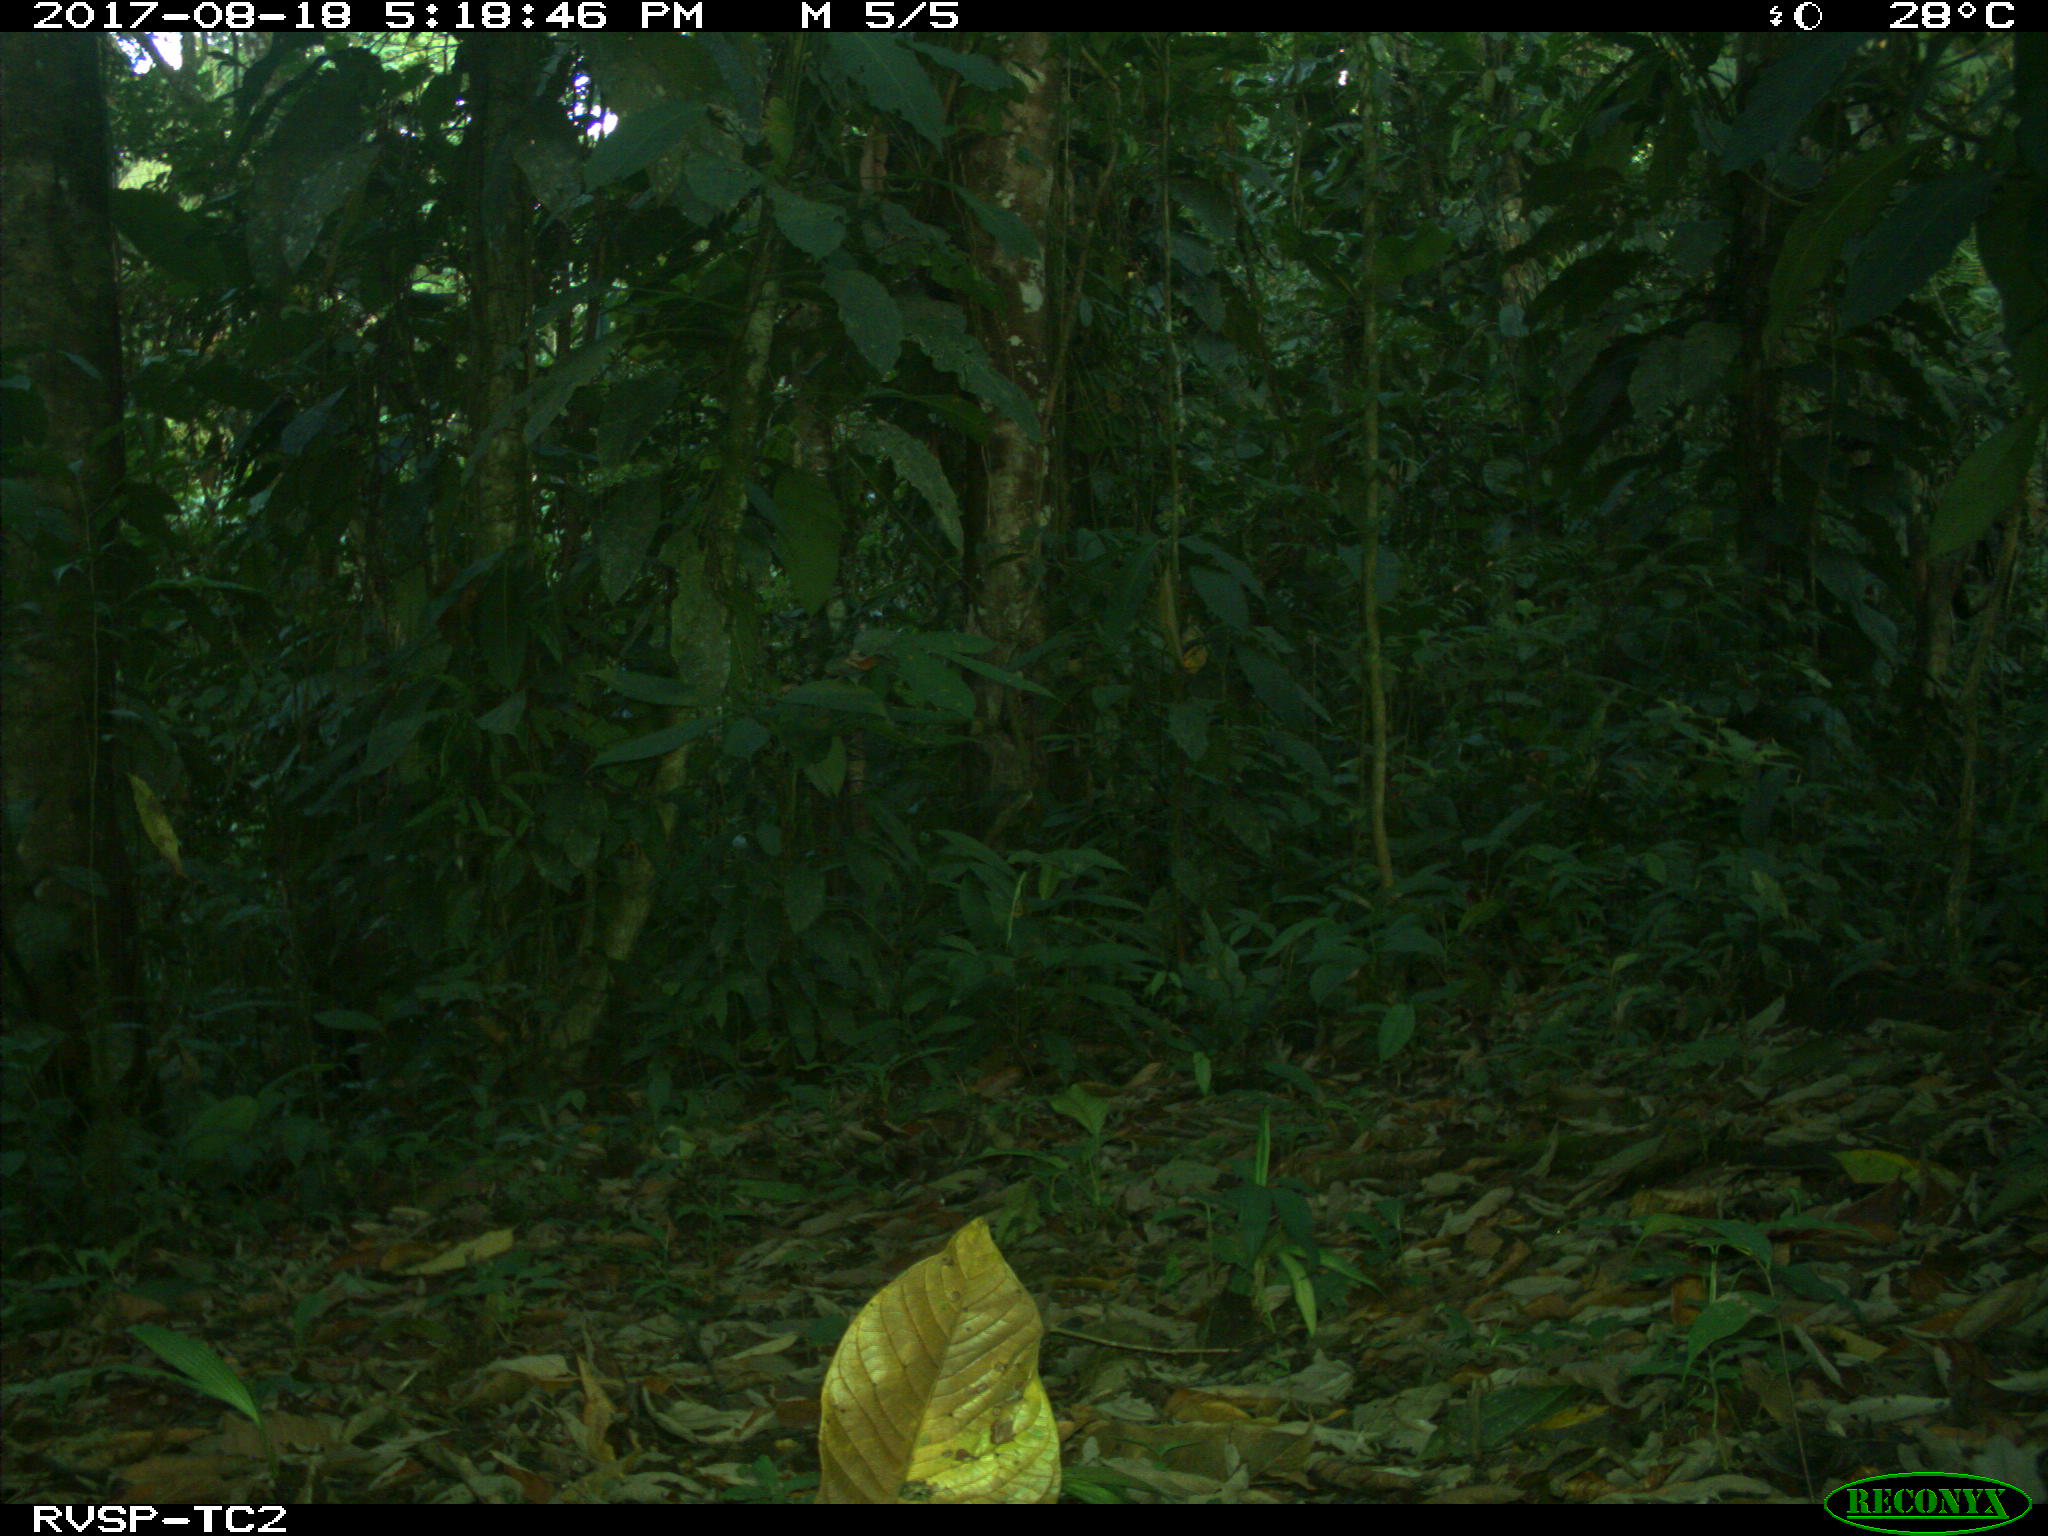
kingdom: Animalia
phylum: Chordata
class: Mammalia
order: Artiodactyla
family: Tayassuidae
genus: Tayassu
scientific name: Tayassu pecari
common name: White-lipped peccary
